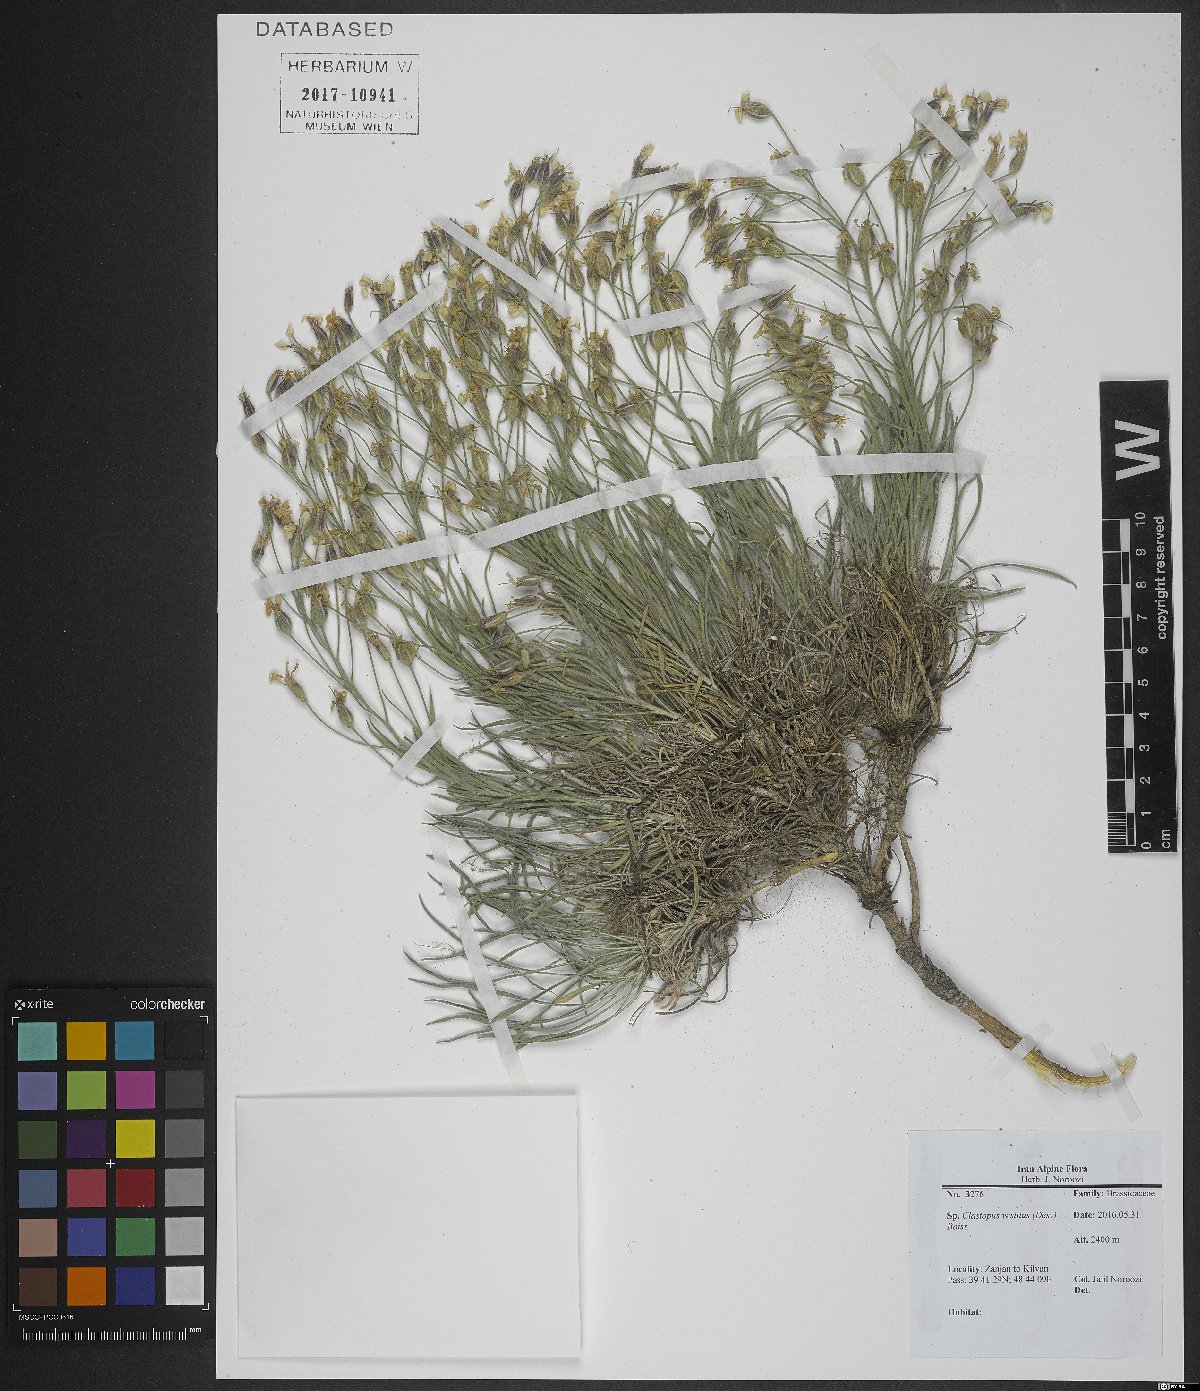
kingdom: Plantae
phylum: Tracheophyta
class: Magnoliopsida
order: Brassicales
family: Brassicaceae
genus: Clastopus
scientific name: Clastopus vestitus
